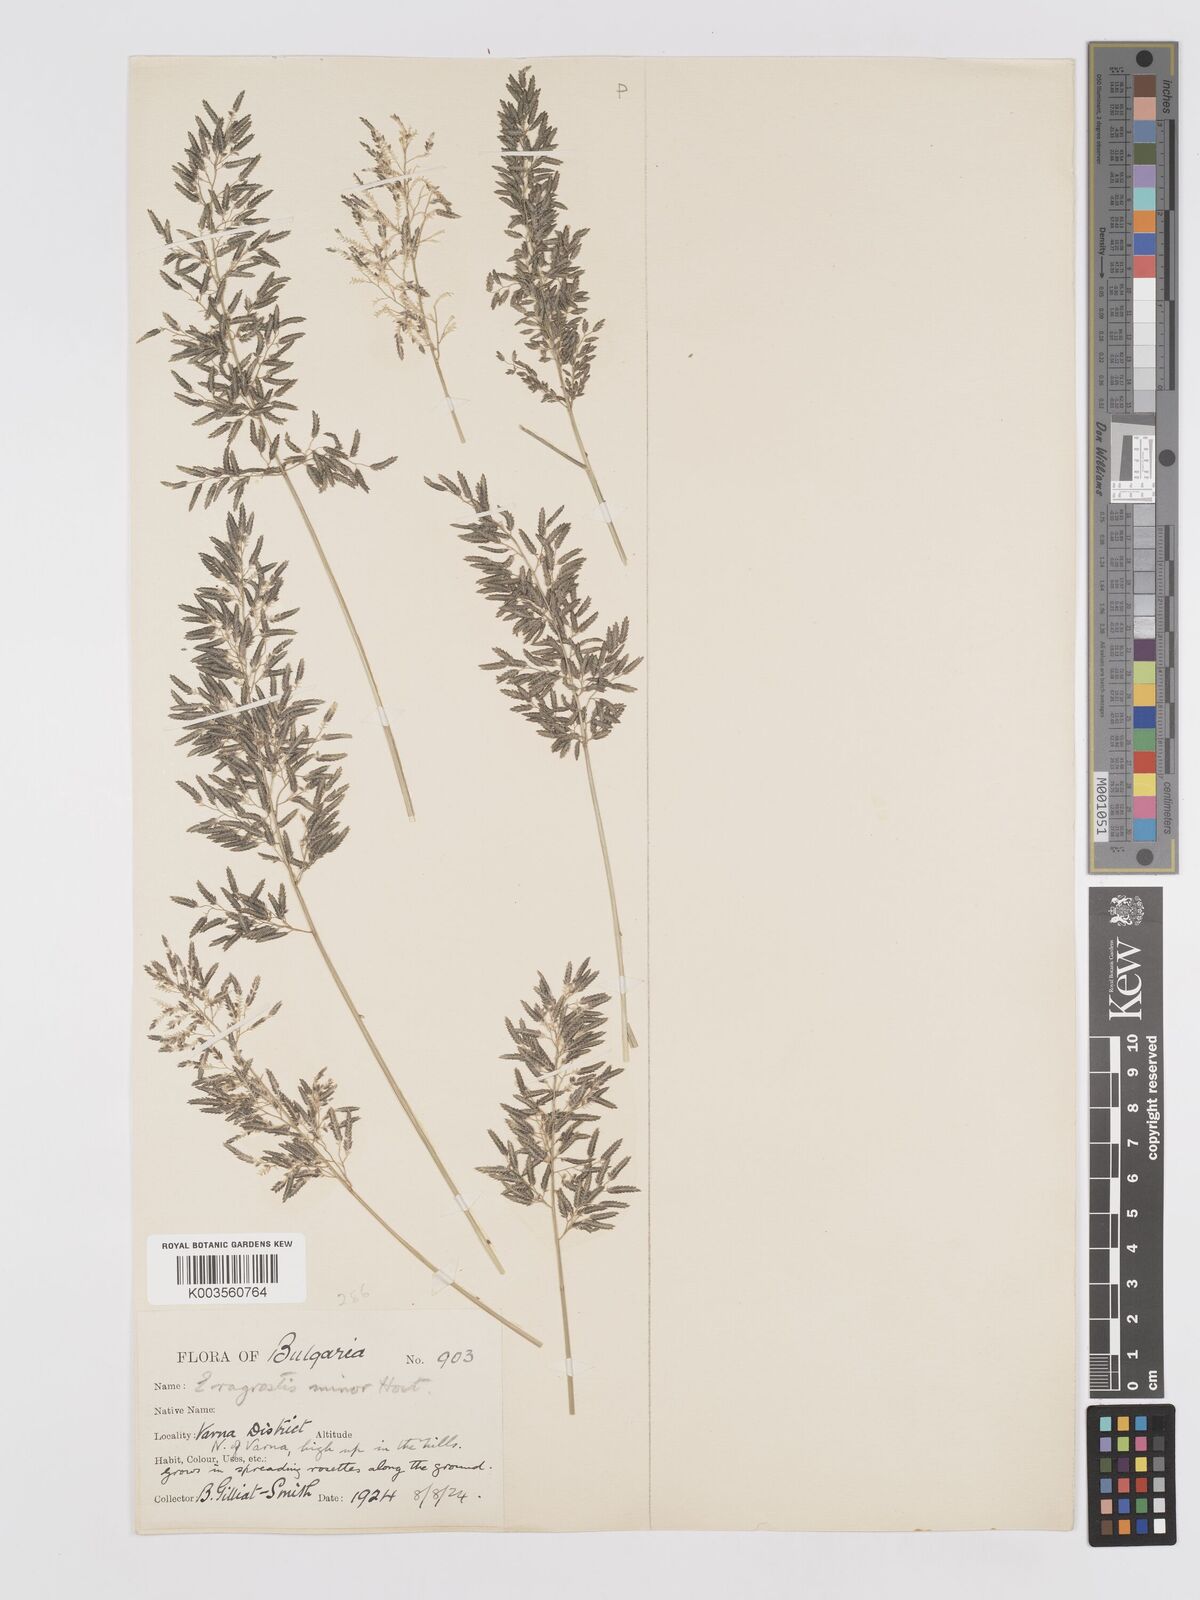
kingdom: Plantae
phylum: Tracheophyta
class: Liliopsida
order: Poales
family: Poaceae
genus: Eragrostis
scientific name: Eragrostis minor
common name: Small love-grass
